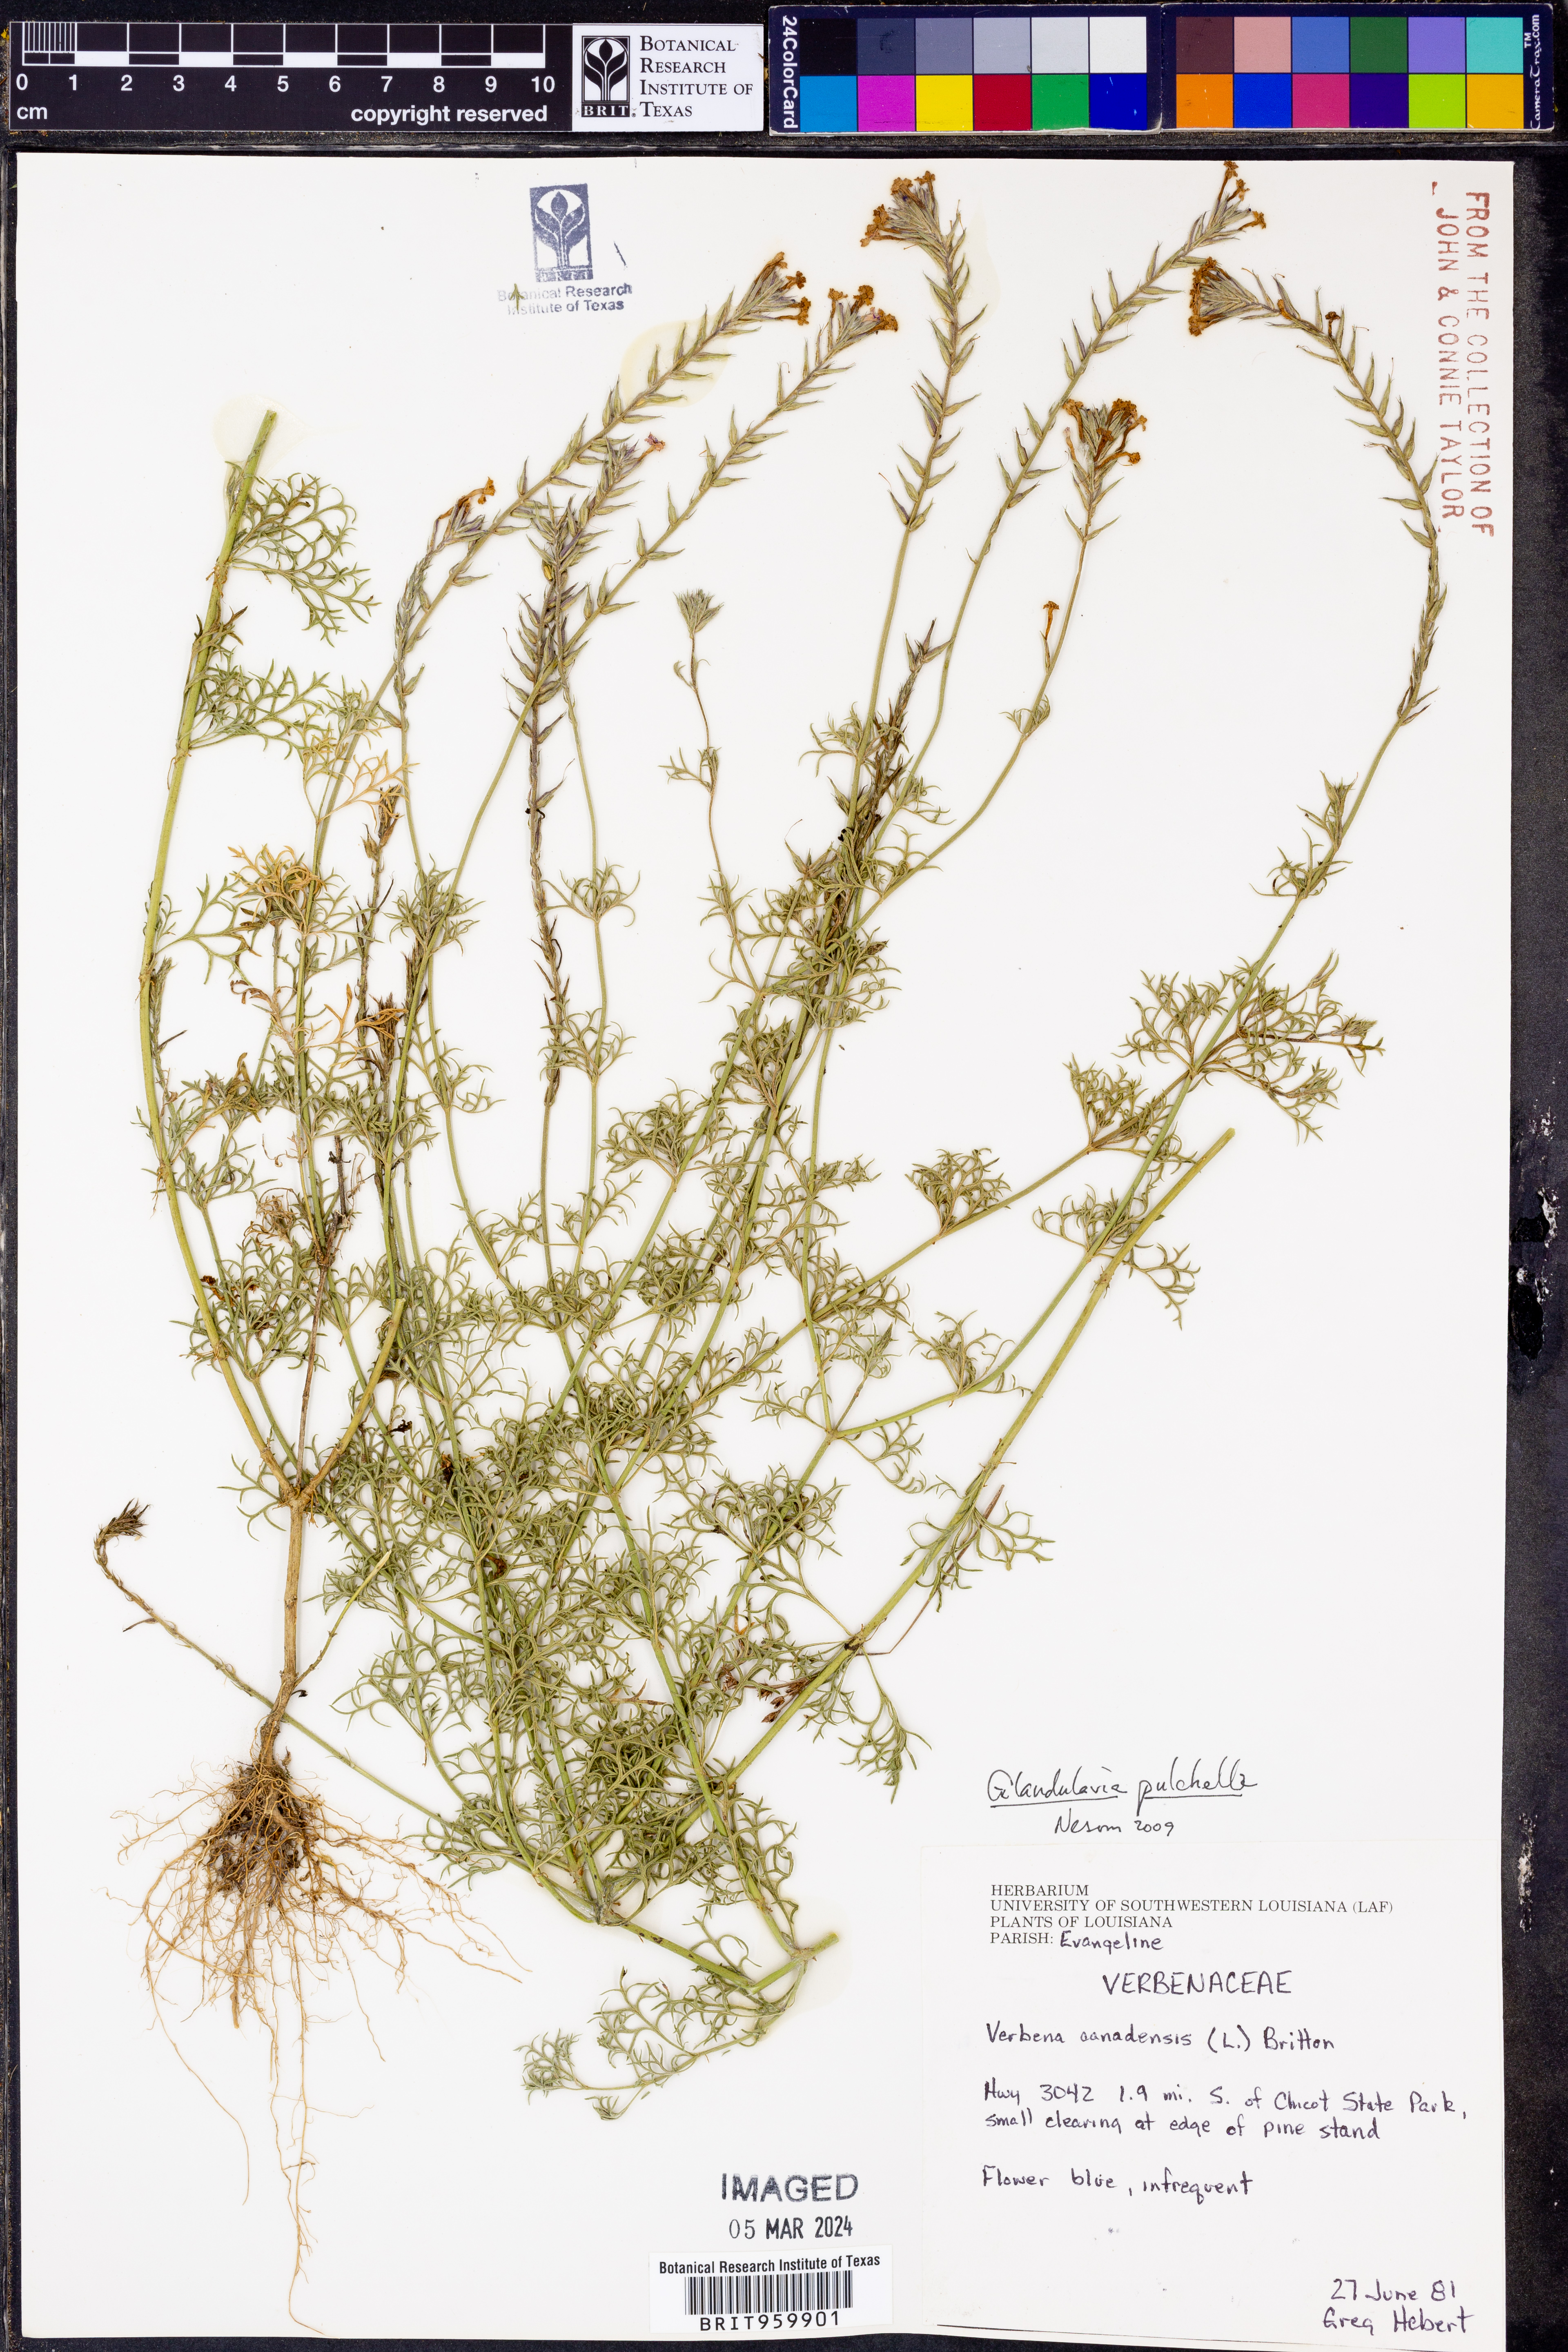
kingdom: Plantae
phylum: Tracheophyta
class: Magnoliopsida
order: Lamiales
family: Verbenaceae
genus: Verbena
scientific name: Verbena tenera
